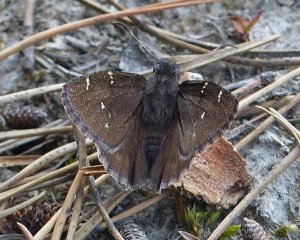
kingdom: Animalia
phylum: Arthropoda
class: Insecta
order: Lepidoptera
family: Hesperiidae
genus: Autochton
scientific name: Autochton
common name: Northern Cloudywing
